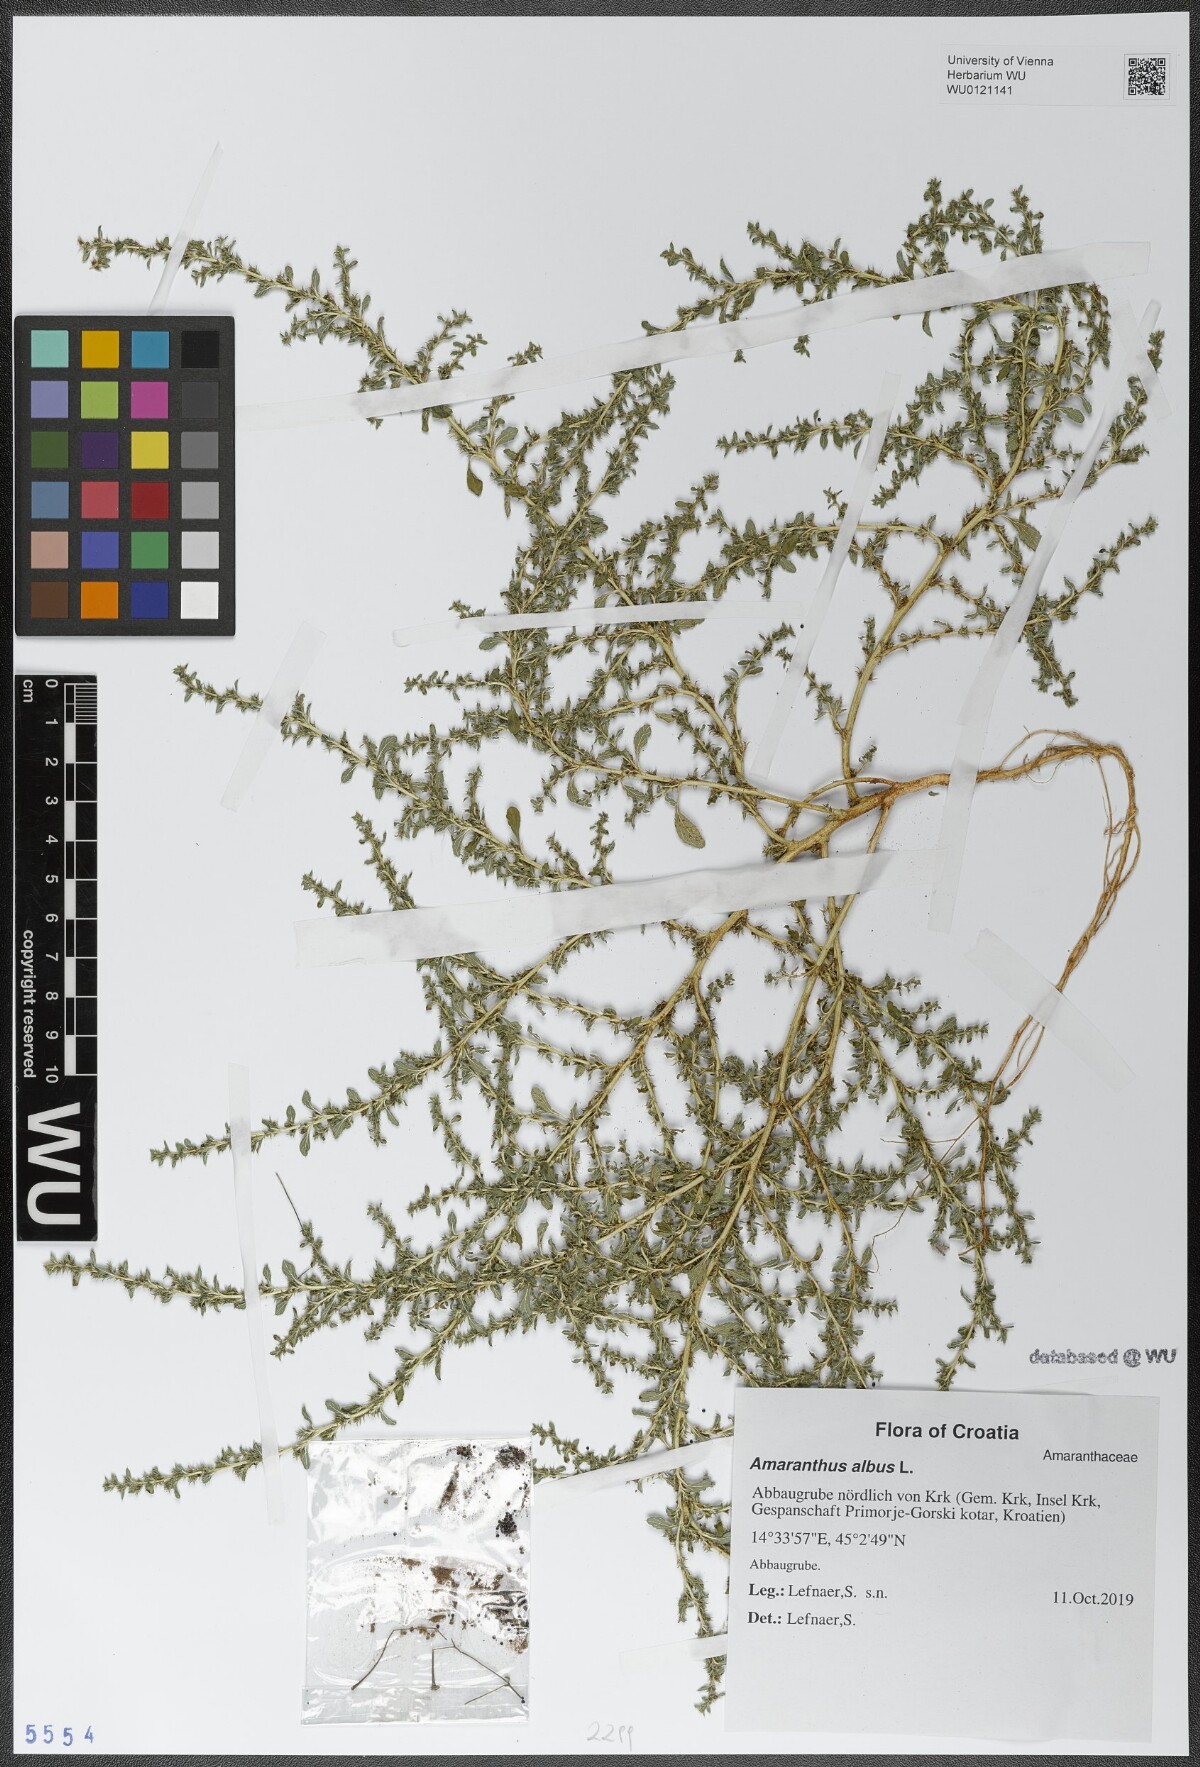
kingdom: Plantae
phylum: Tracheophyta
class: Magnoliopsida
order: Caryophyllales
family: Amaranthaceae
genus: Amaranthus
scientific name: Amaranthus albus
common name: White pigweed
